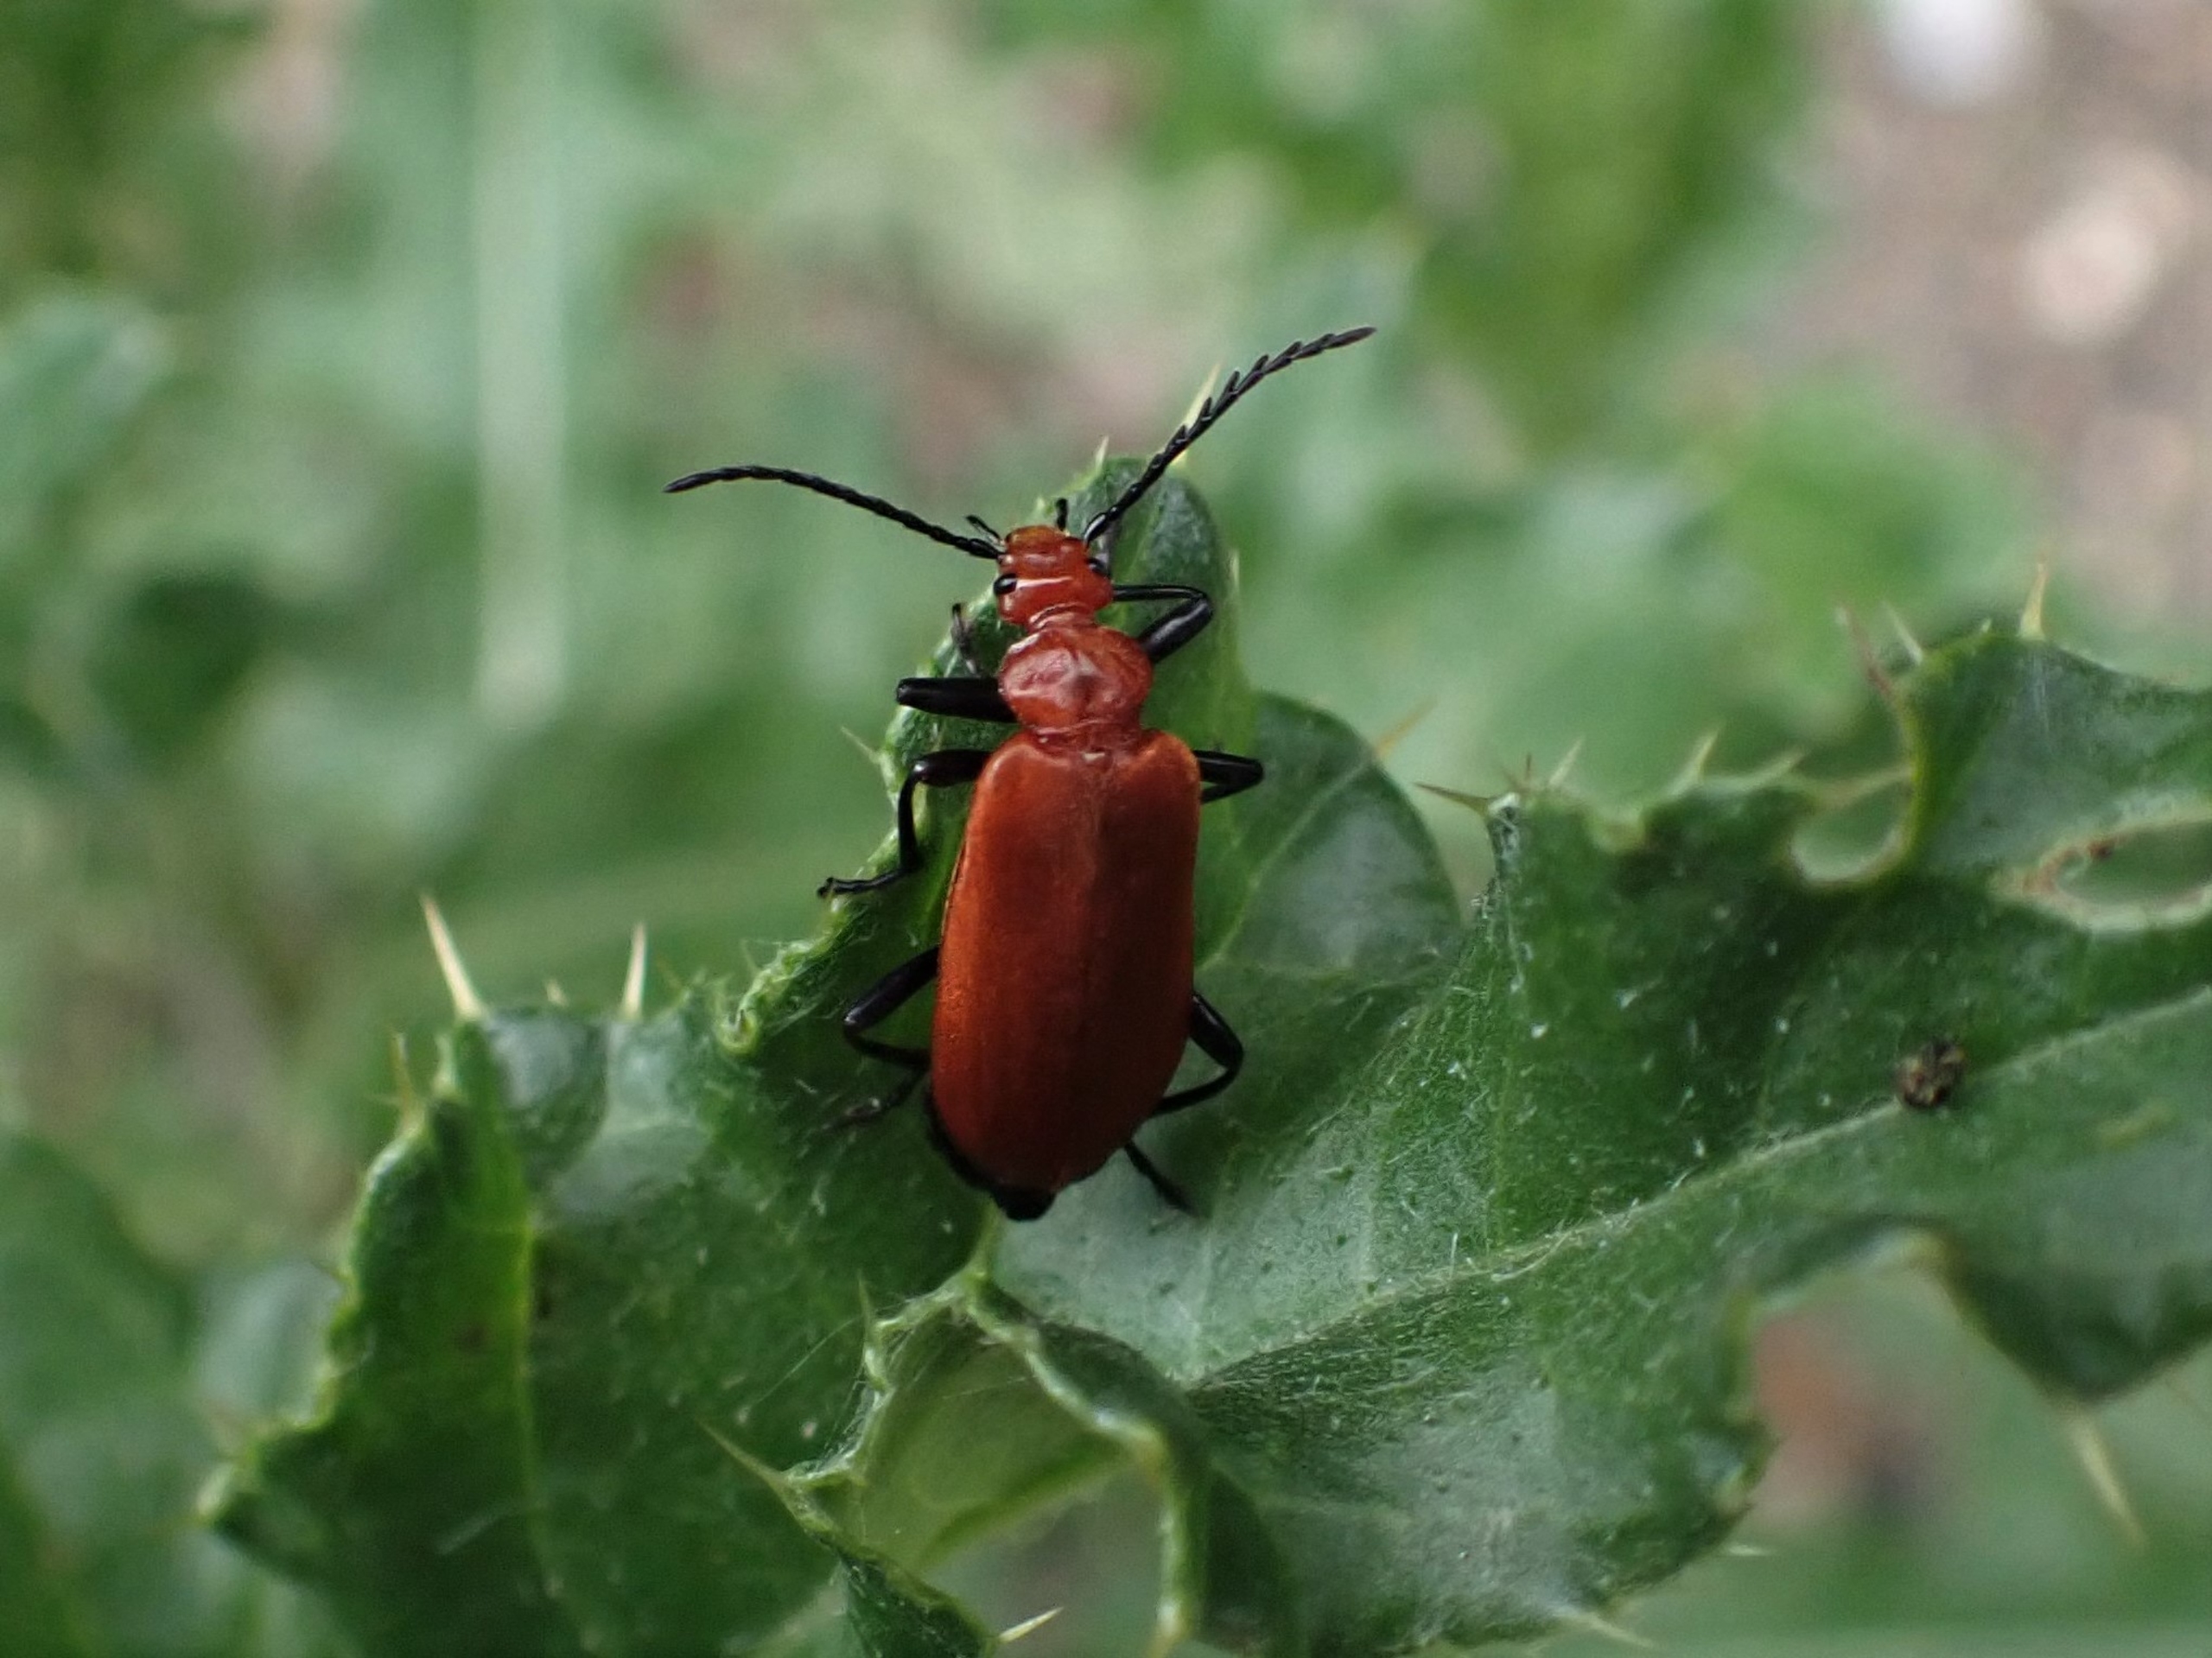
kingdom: Animalia
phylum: Arthropoda
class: Insecta
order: Coleoptera
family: Pyrochroidae
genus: Pyrochroa
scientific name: Pyrochroa serraticornis
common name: Rødhovedet kardinalbille
